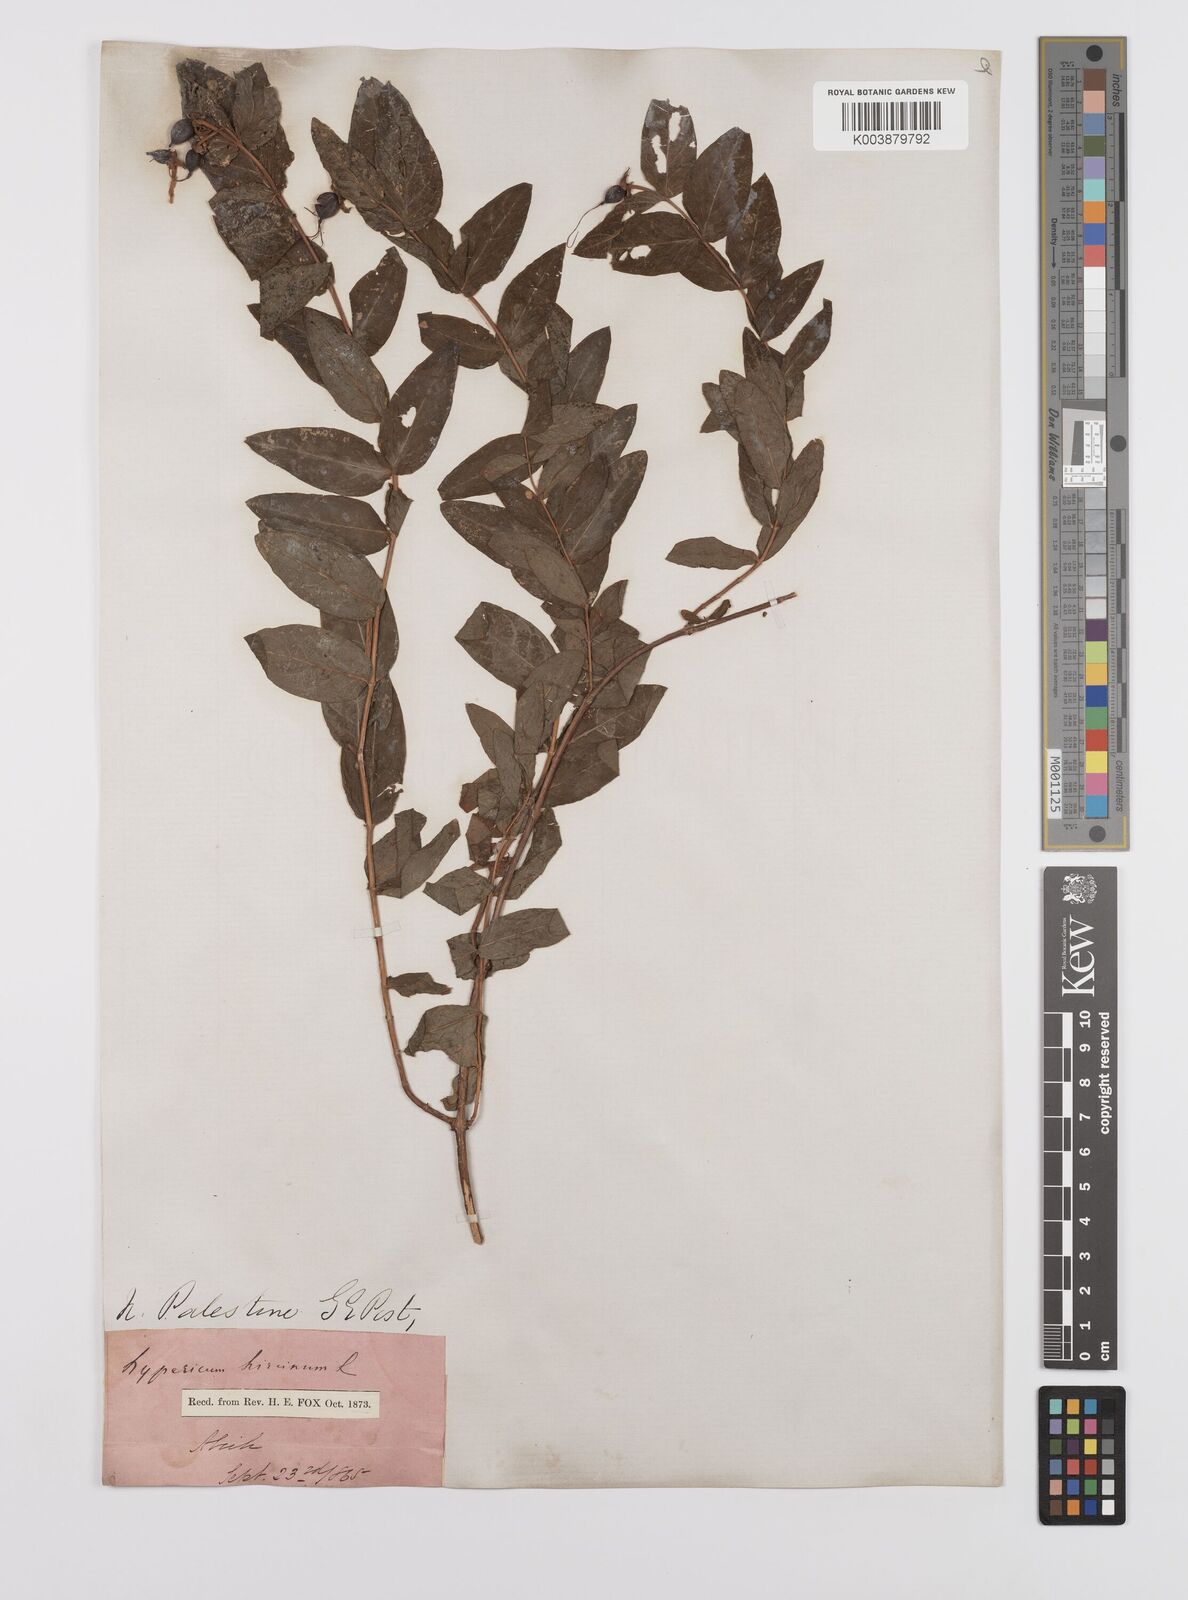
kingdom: Plantae
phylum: Tracheophyta
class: Magnoliopsida
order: Malpighiales
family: Hypericaceae
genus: Hypericum
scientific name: Hypericum hircinum
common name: Stinking tutsan
